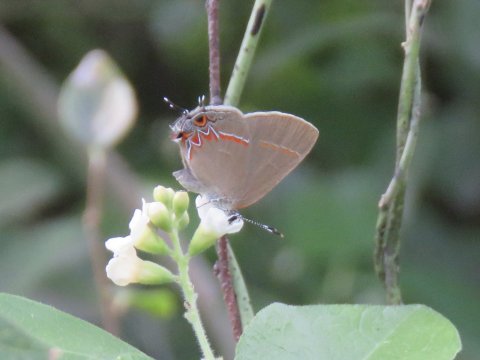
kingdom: Animalia
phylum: Arthropoda
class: Insecta
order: Lepidoptera
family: Lycaenidae
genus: Calycopis
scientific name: Calycopis isobeon
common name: Dusky-blue Groundstreak
